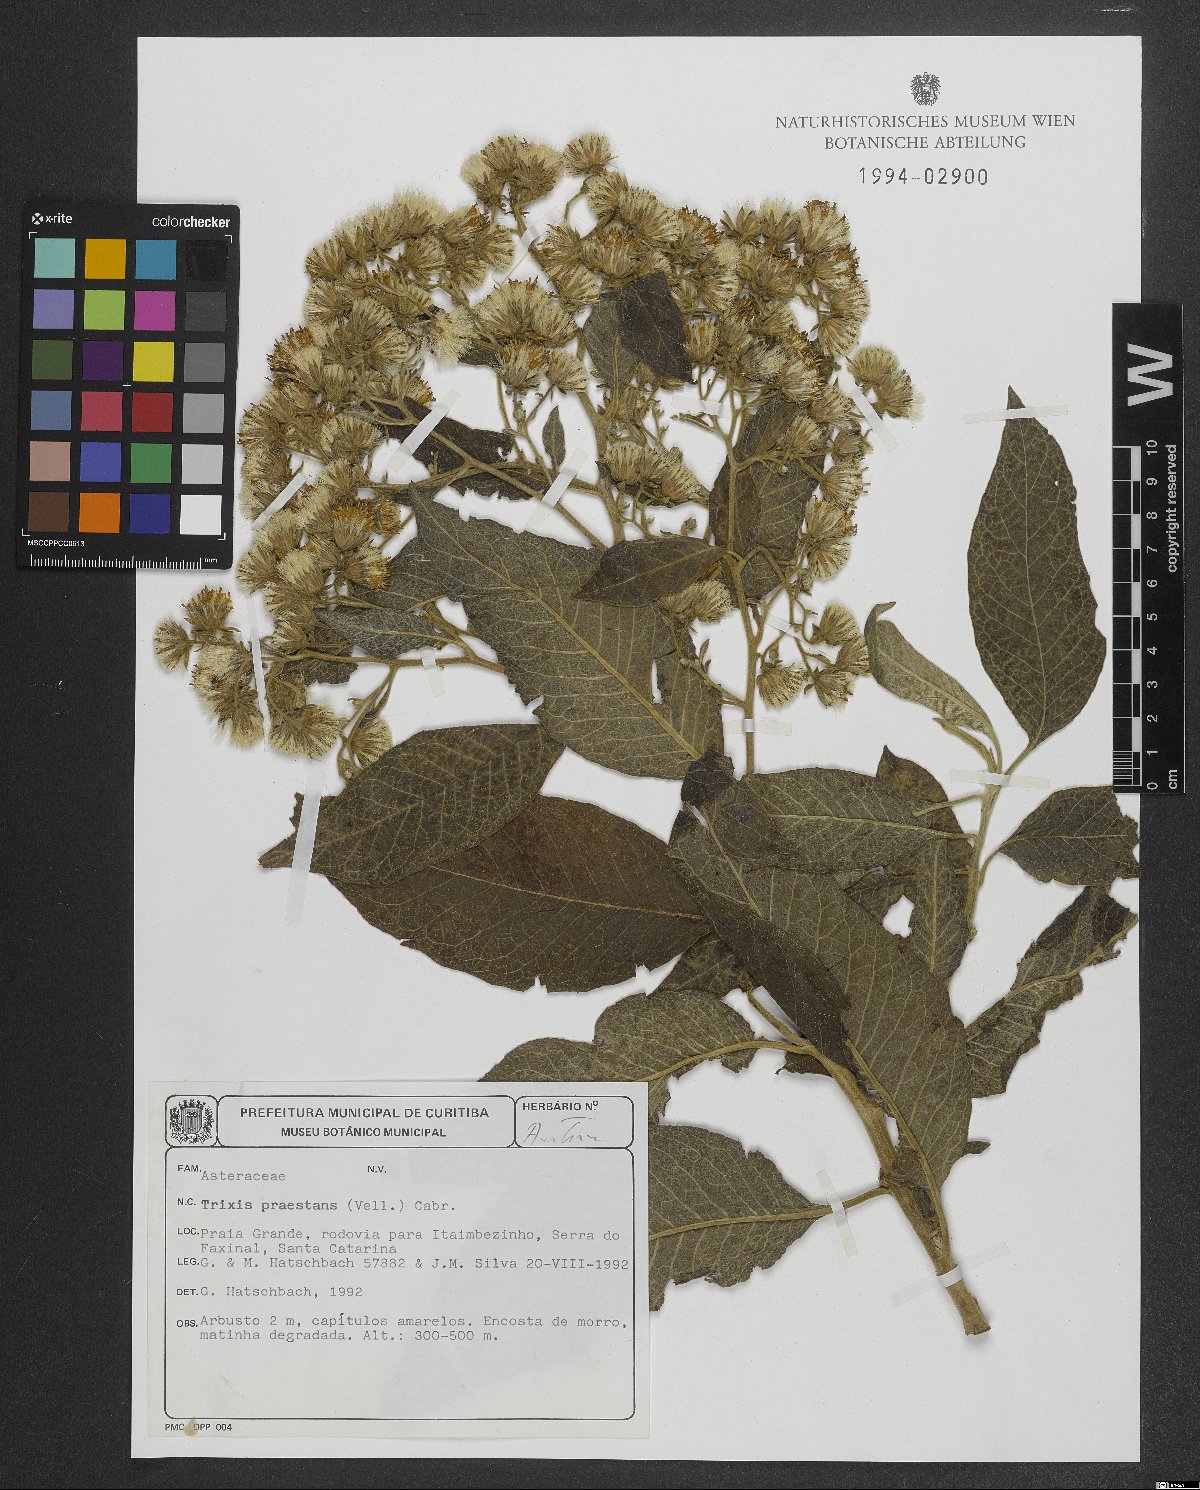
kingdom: Plantae
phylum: Tracheophyta
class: Magnoliopsida
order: Asterales
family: Asteraceae
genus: Trixis
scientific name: Trixis praestans
